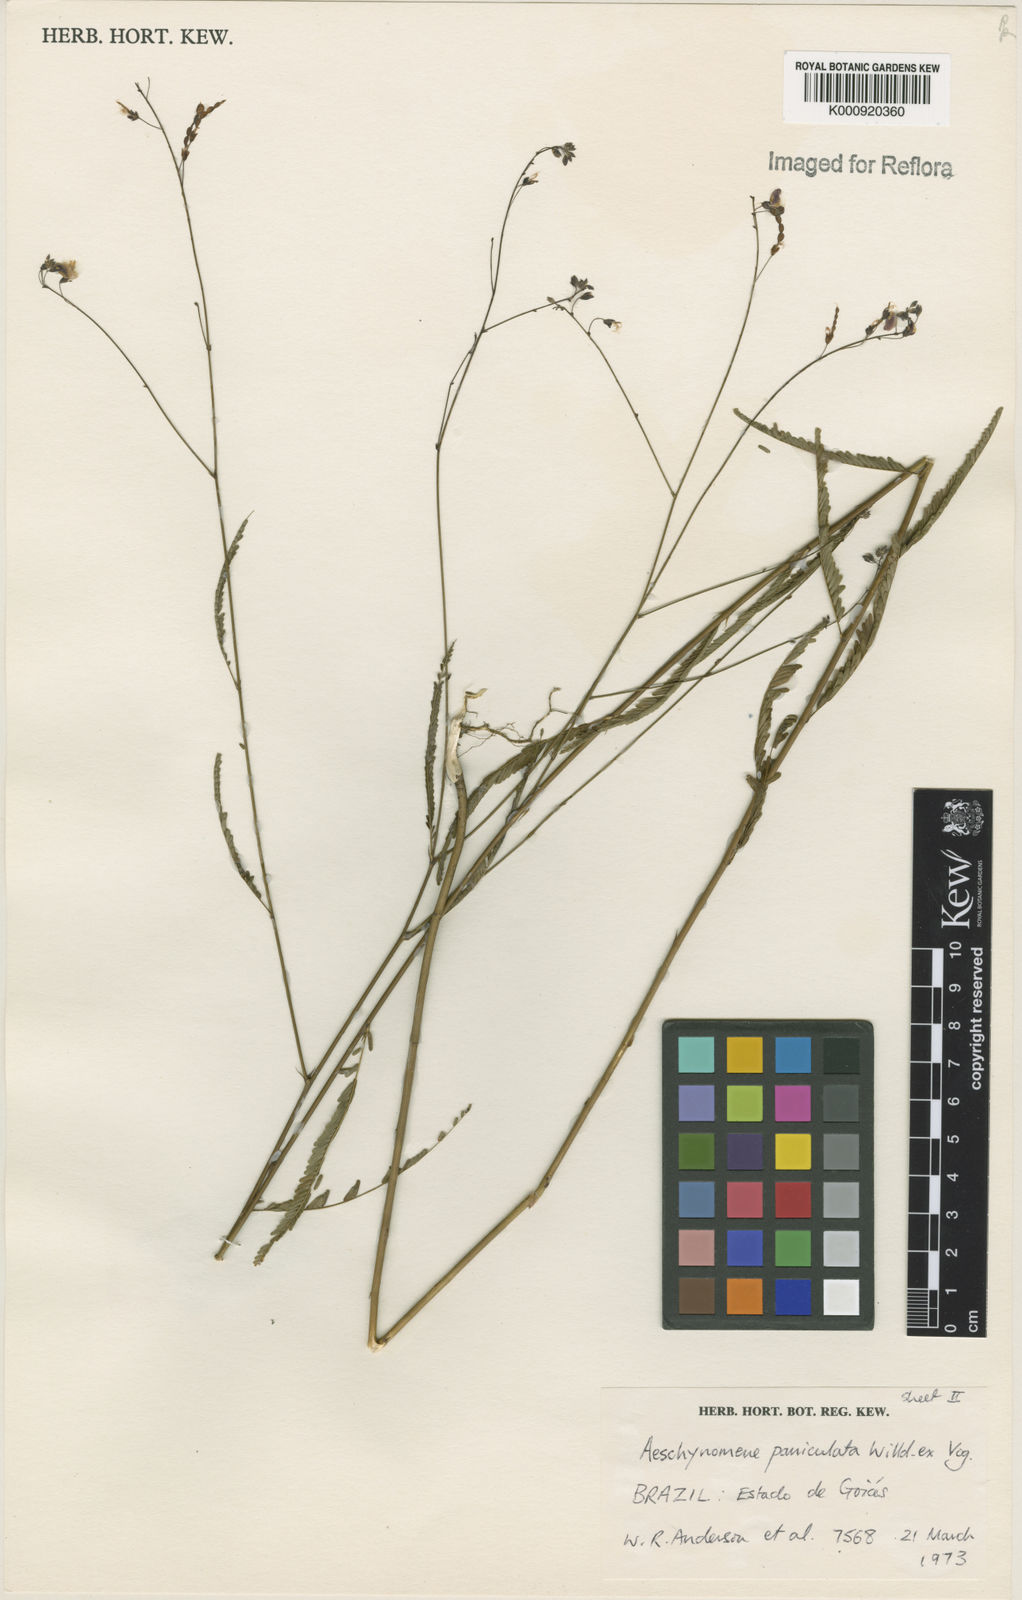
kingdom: Plantae
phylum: Tracheophyta
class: Magnoliopsida
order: Fabales
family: Fabaceae
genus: Ctenodon
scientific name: Ctenodon paniculatus
